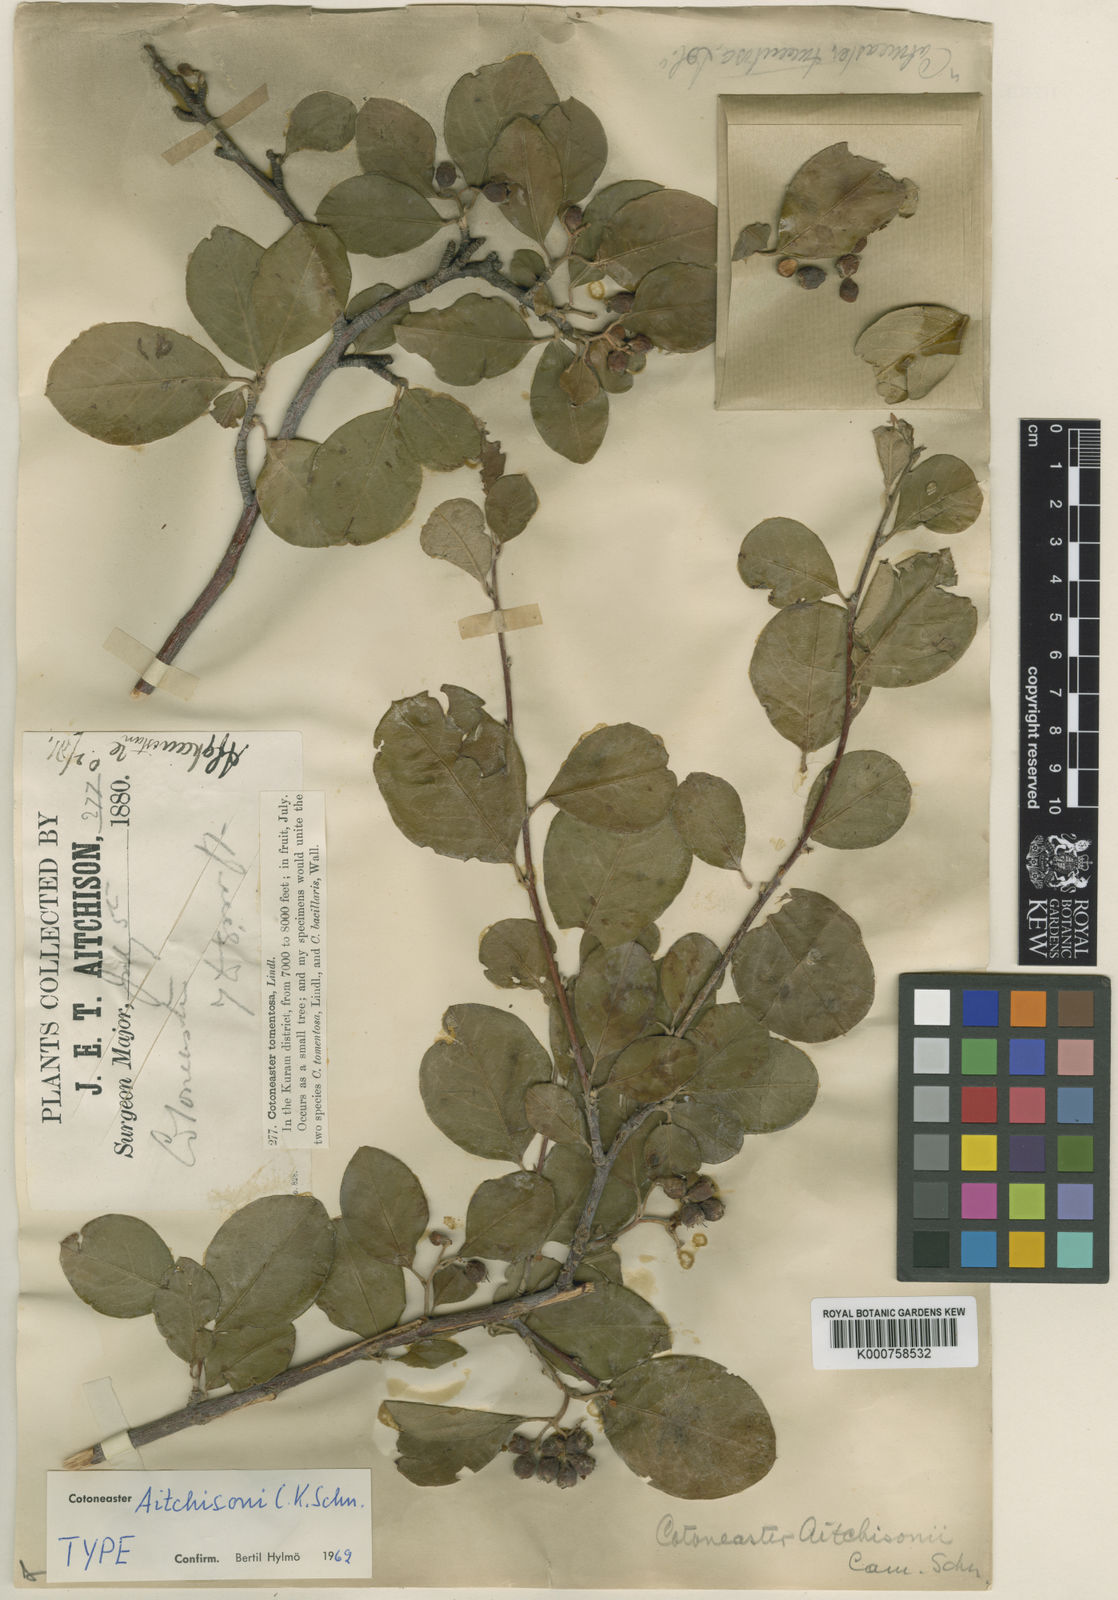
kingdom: Plantae
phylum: Tracheophyta
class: Magnoliopsida
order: Rosales
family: Rosaceae
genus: Cotoneaster
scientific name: Cotoneaster aitchisonii
